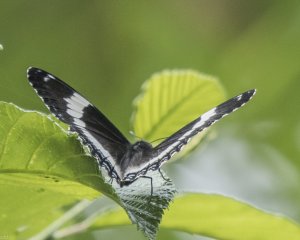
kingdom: Animalia
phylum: Arthropoda
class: Insecta
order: Lepidoptera
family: Nymphalidae
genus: Limenitis
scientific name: Limenitis arthemis
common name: Red-spotted Admiral
